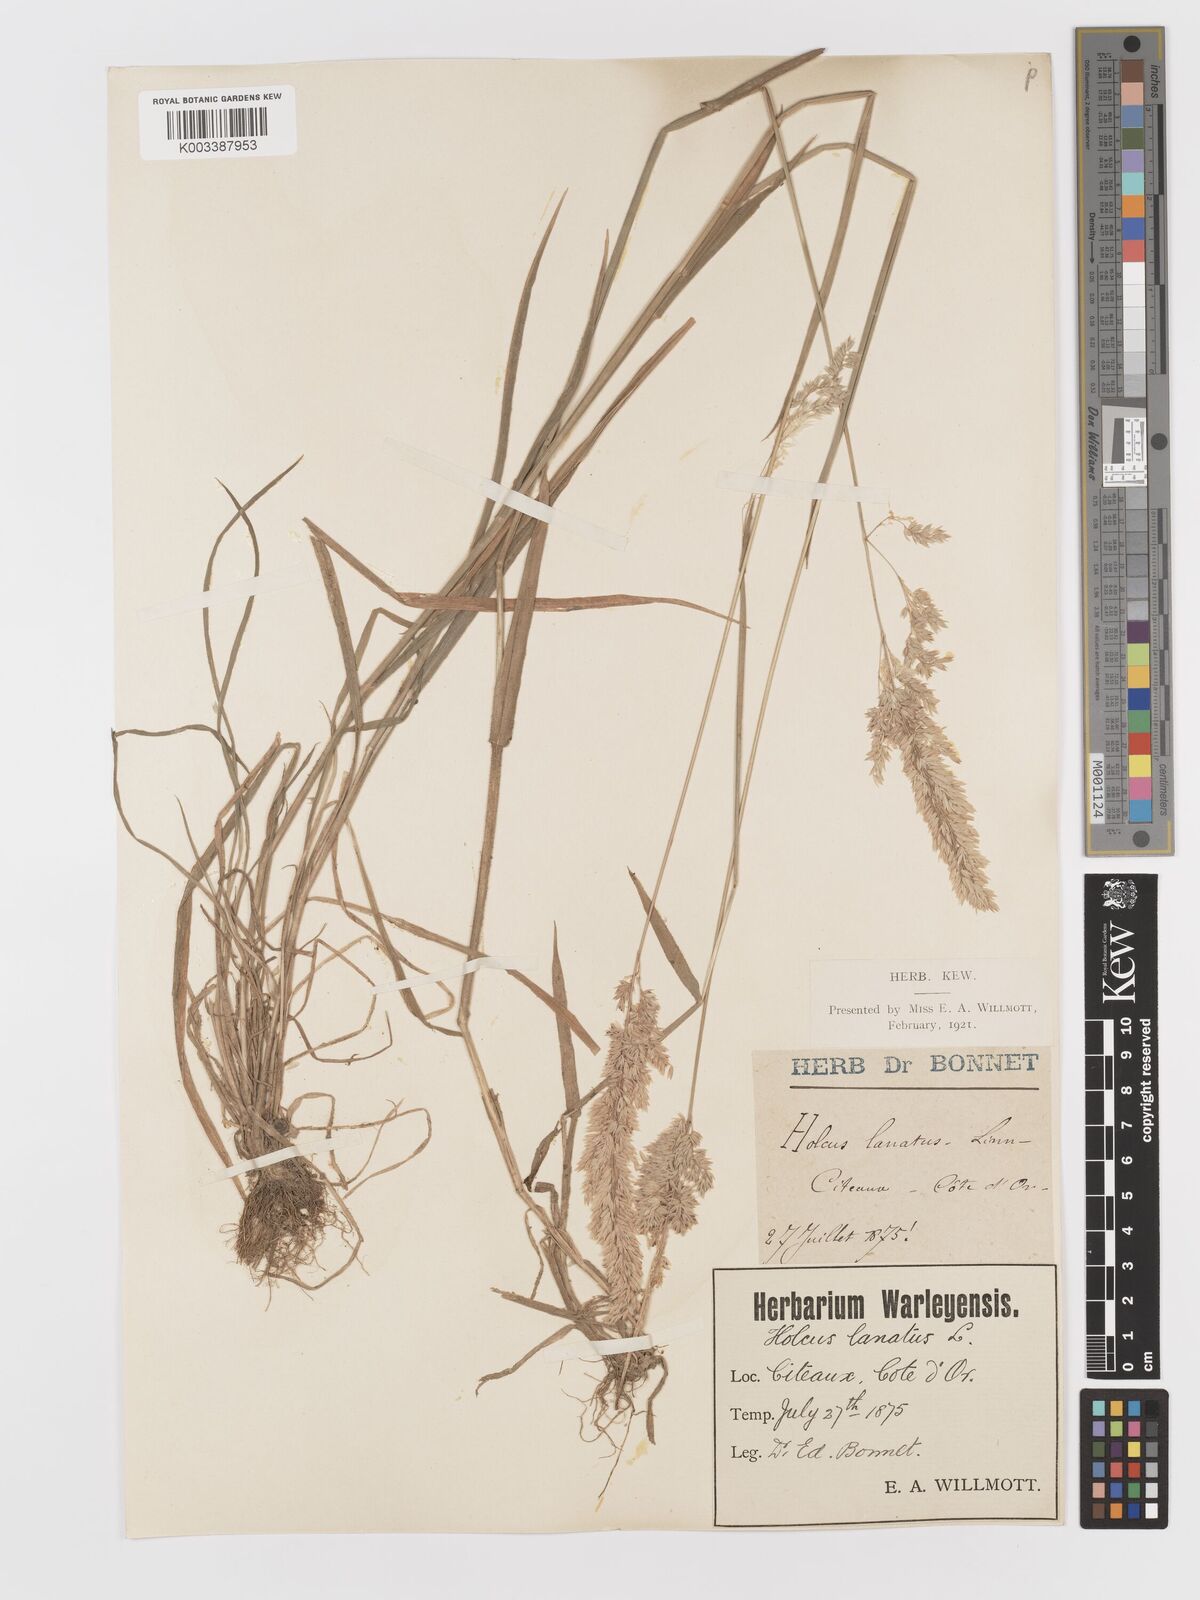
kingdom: Plantae
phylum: Tracheophyta
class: Liliopsida
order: Poales
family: Poaceae
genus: Holcus
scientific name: Holcus lanatus
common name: Yorkshire-fog
